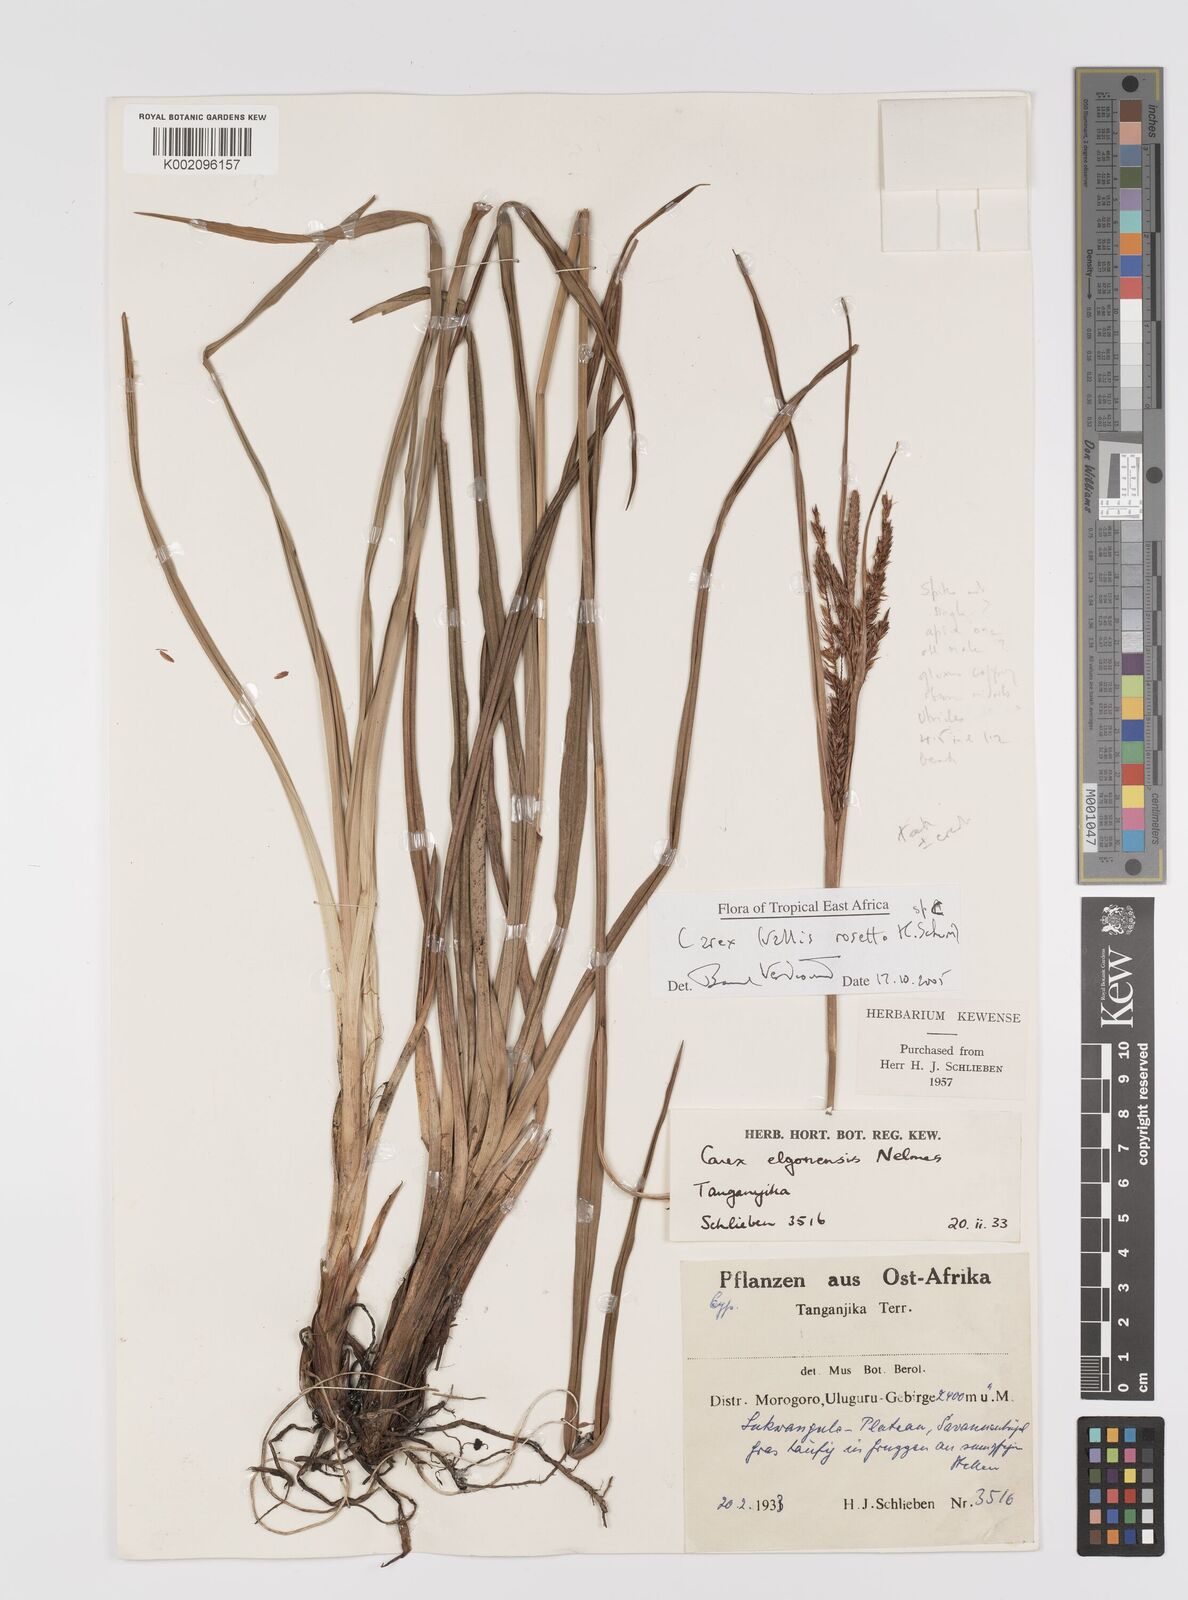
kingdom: Plantae
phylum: Tracheophyta
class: Liliopsida
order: Poales
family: Cyperaceae
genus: Carex
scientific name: Carex
